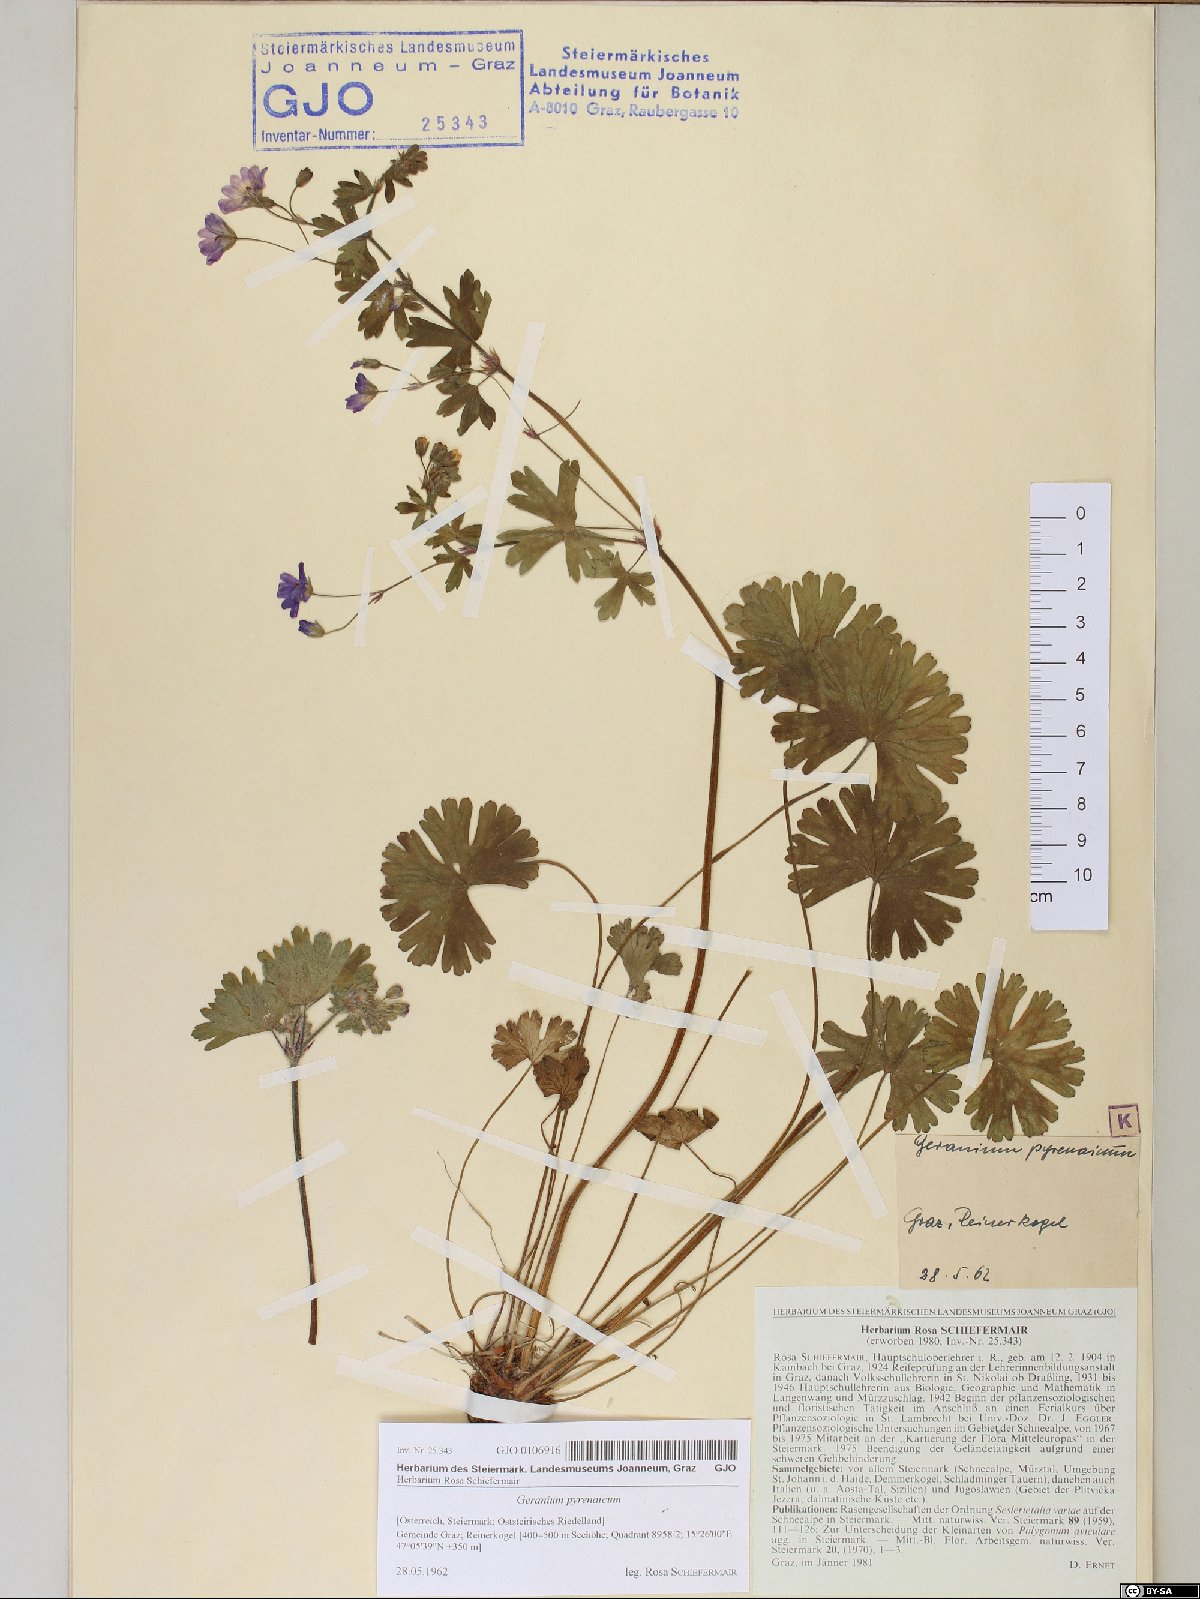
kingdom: Plantae
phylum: Tracheophyta
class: Magnoliopsida
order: Geraniales
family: Geraniaceae
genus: Geranium
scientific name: Geranium pyrenaicum
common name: Hedgerow crane's-bill
